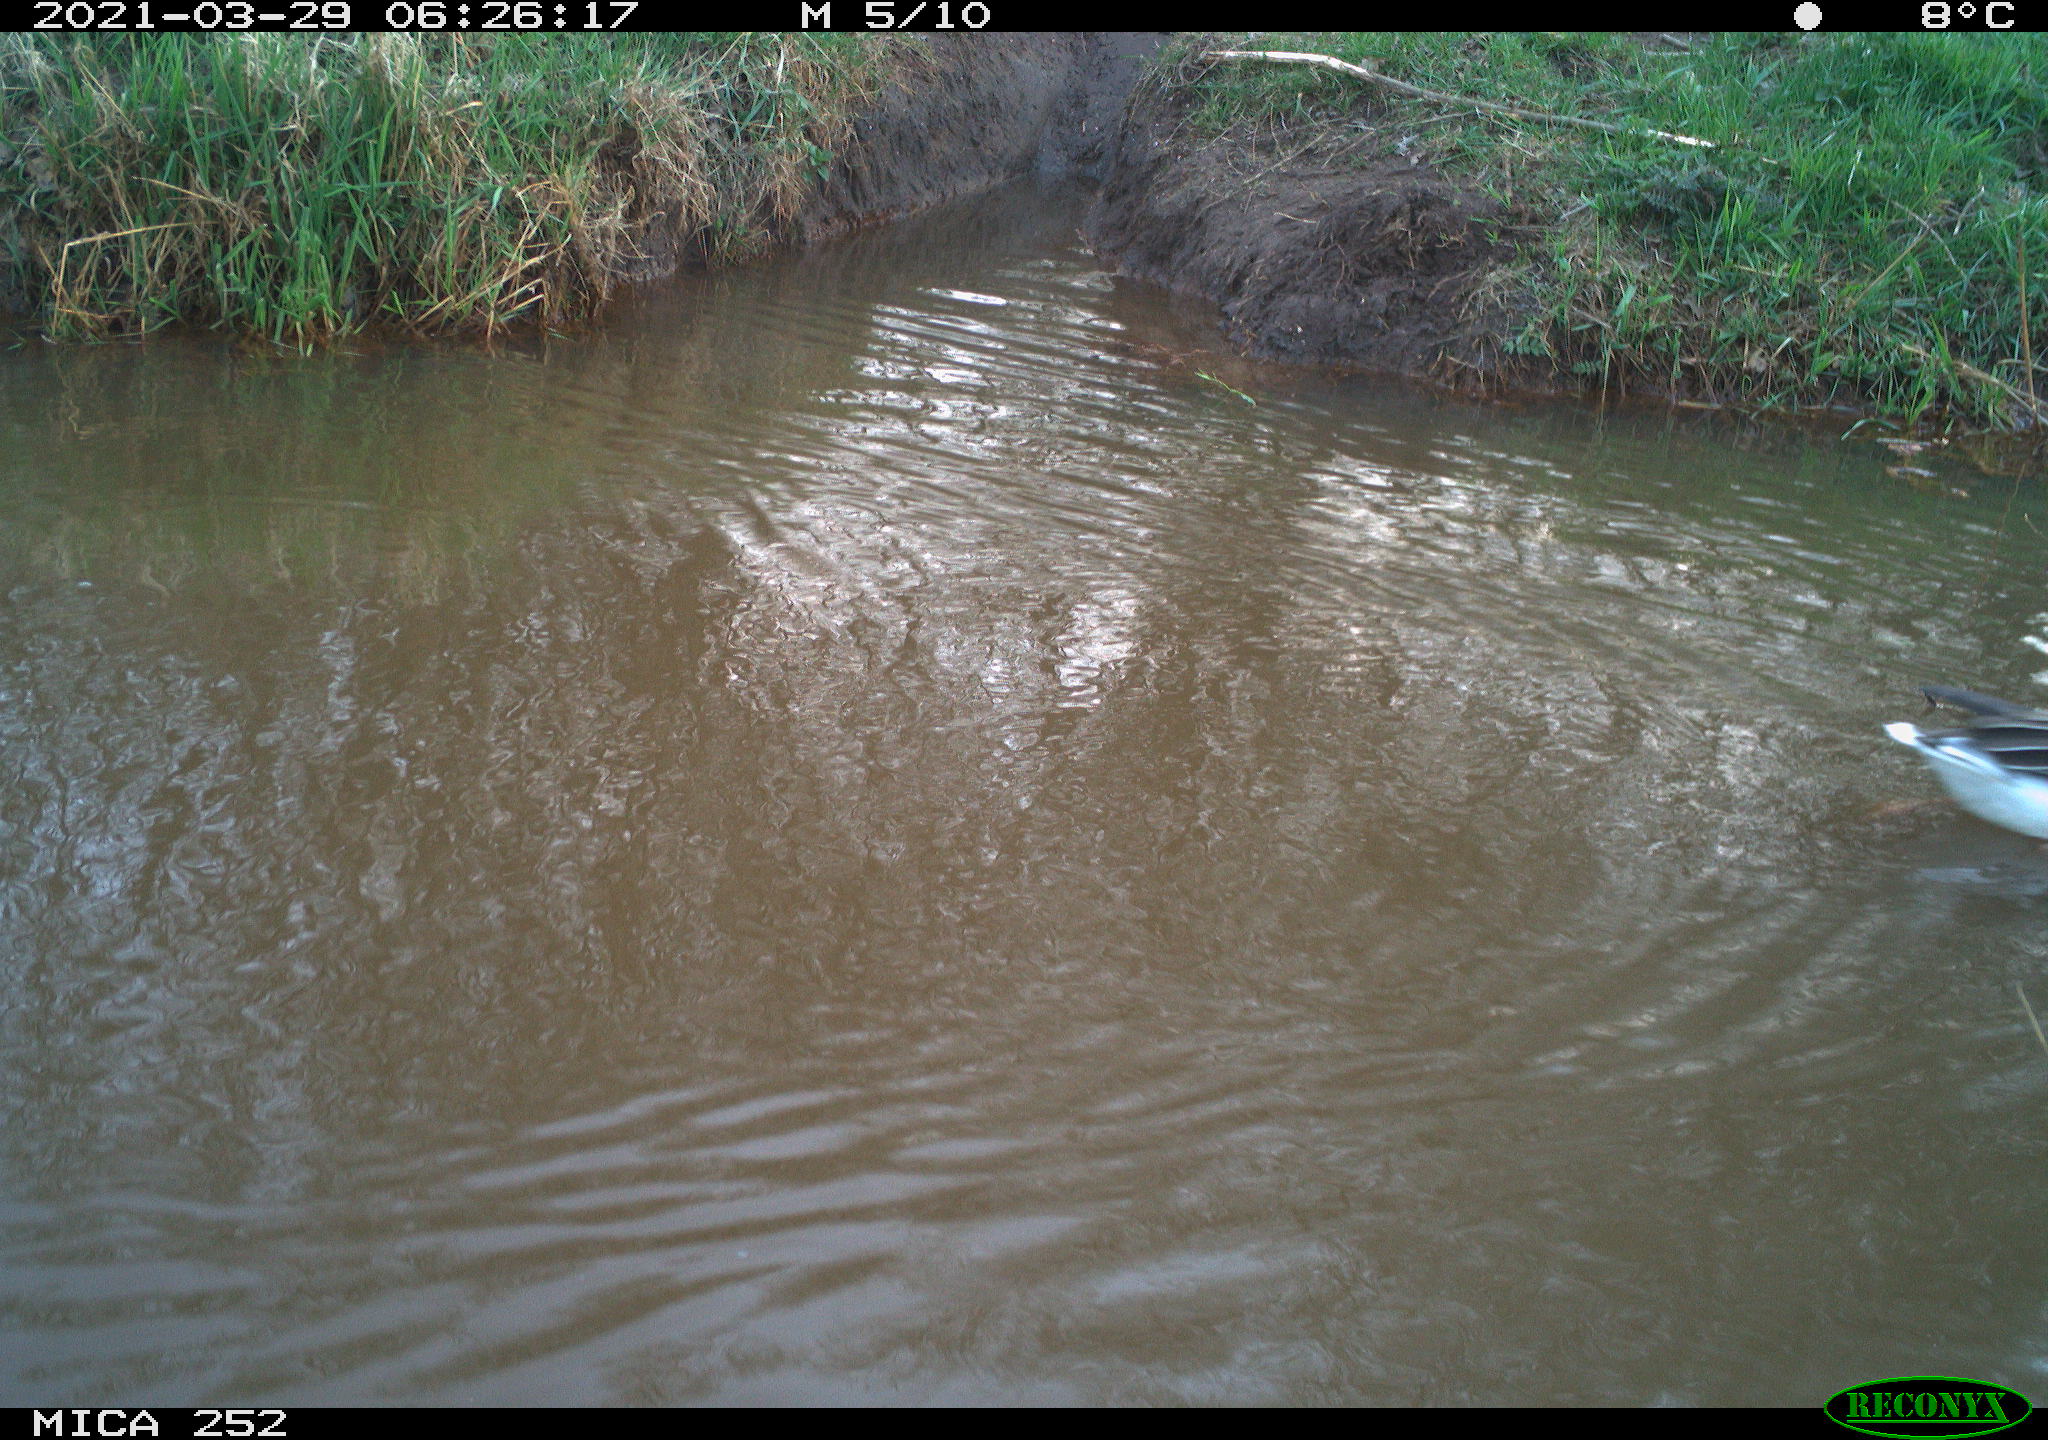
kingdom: Animalia
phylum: Chordata
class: Aves
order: Anseriformes
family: Anatidae
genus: Anser
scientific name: Anser anser
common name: Greylag goose
